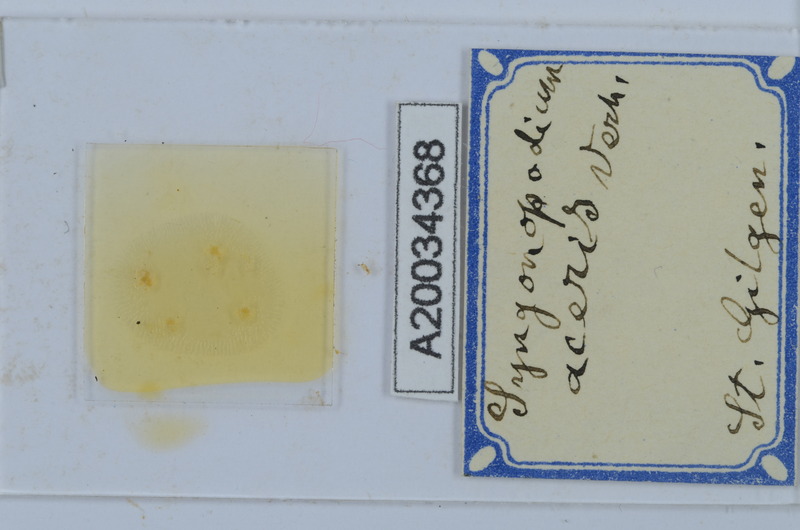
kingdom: Animalia
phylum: Arthropoda
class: Diplopoda
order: Chordeumatida
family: Attemsiidae
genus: Syngonopodium
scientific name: Syngonopodium aceris
